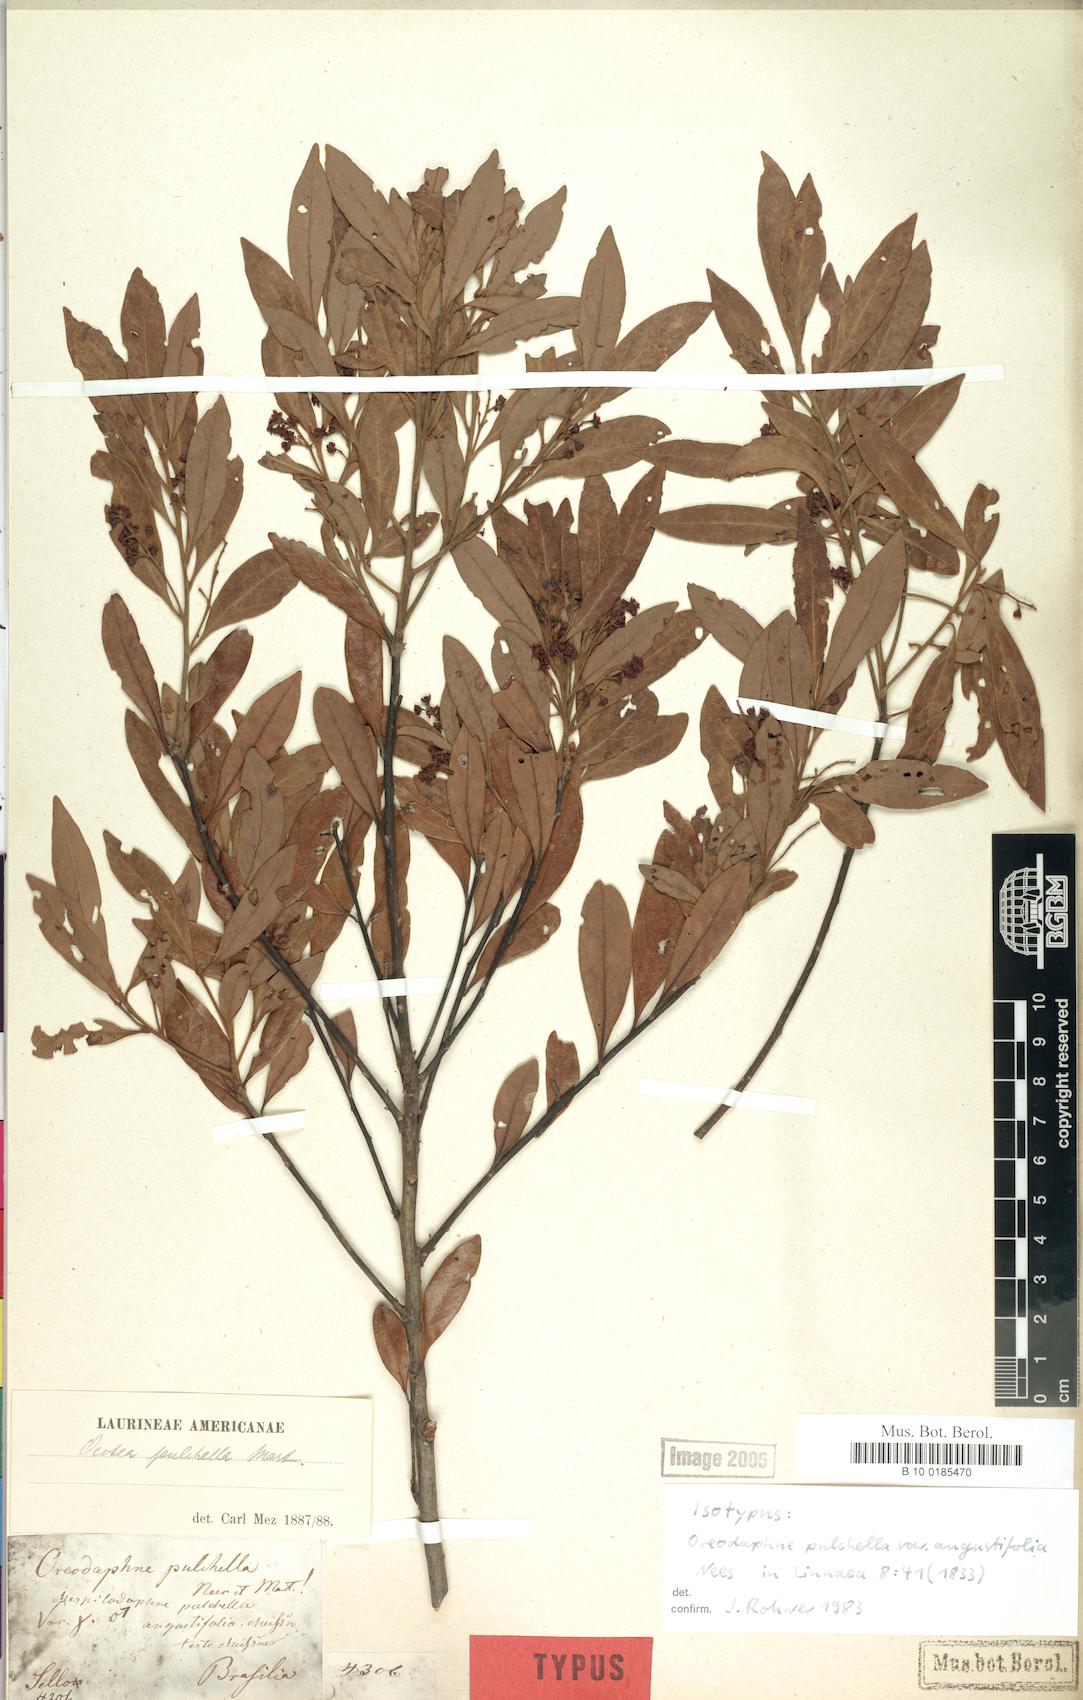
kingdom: Plantae
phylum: Tracheophyta
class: Magnoliopsida
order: Laurales
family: Lauraceae
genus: Mespilodaphne
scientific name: Mespilodaphne pulchella
